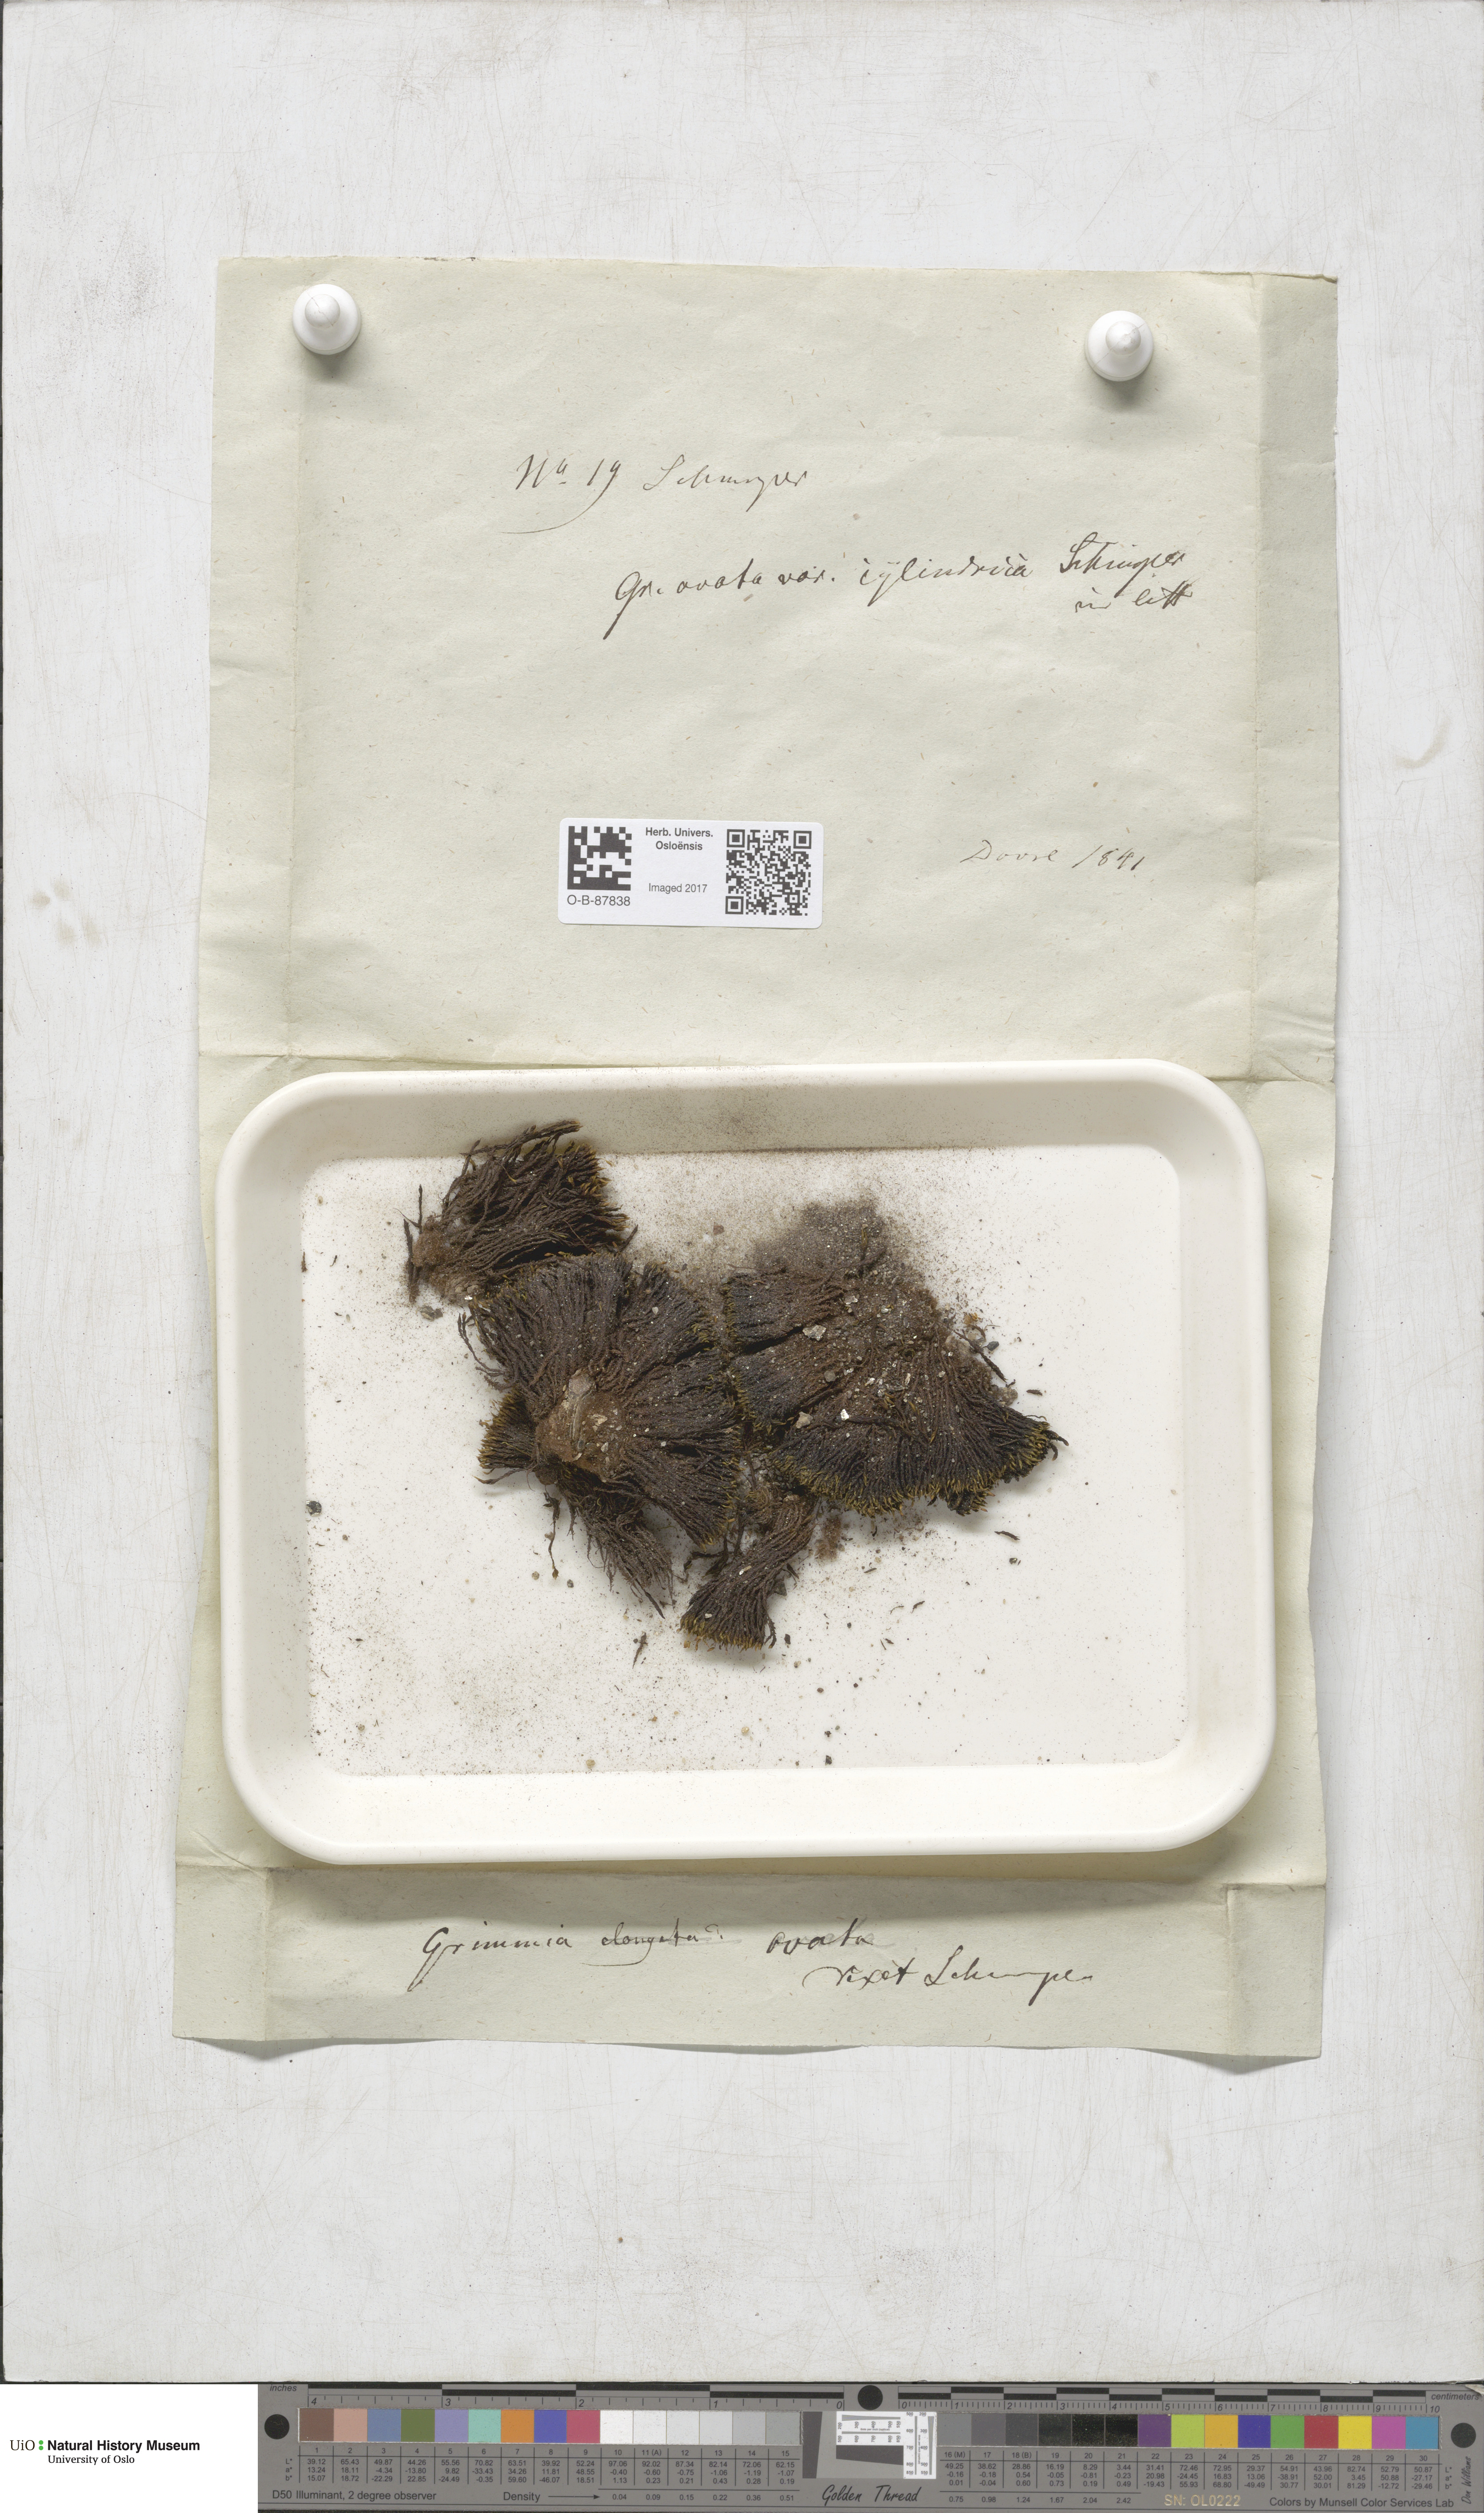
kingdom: Plantae
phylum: Bryophyta
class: Bryopsida
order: Grimmiales
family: Grimmiaceae
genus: Grimmia
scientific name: Grimmia ovalis
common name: Oval grimmia
